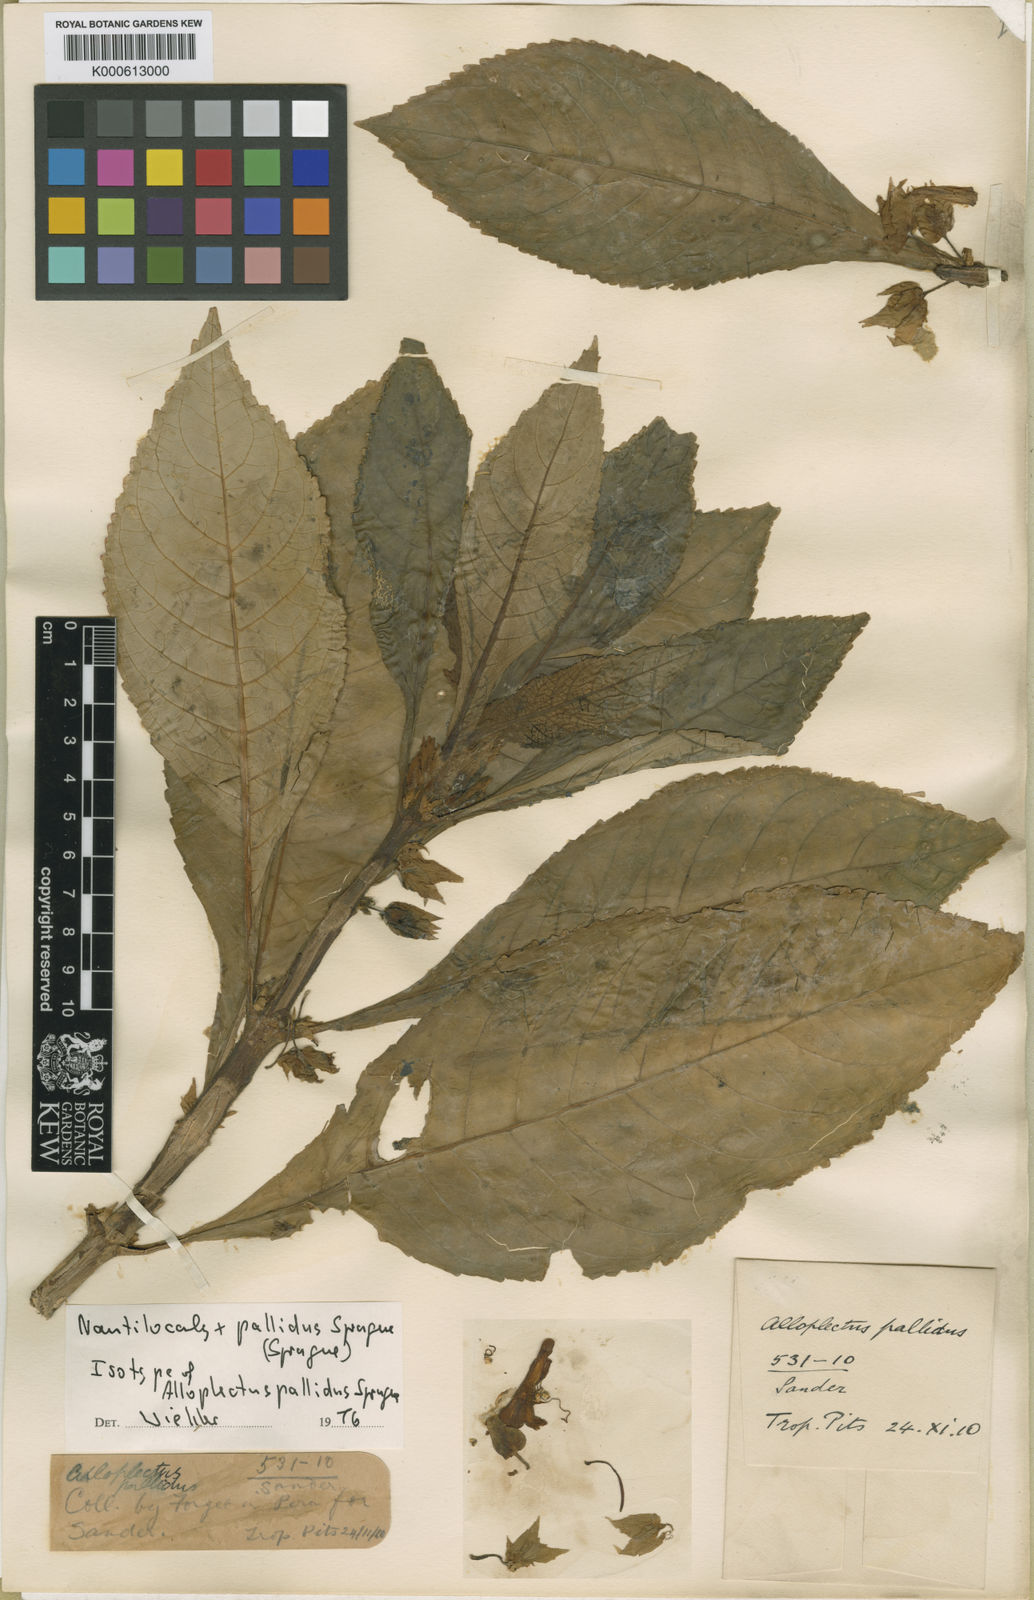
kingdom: Plantae
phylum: Tracheophyta
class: Magnoliopsida
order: Lamiales
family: Gesneriaceae
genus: Nautilocalyx
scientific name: Nautilocalyx pallidus
